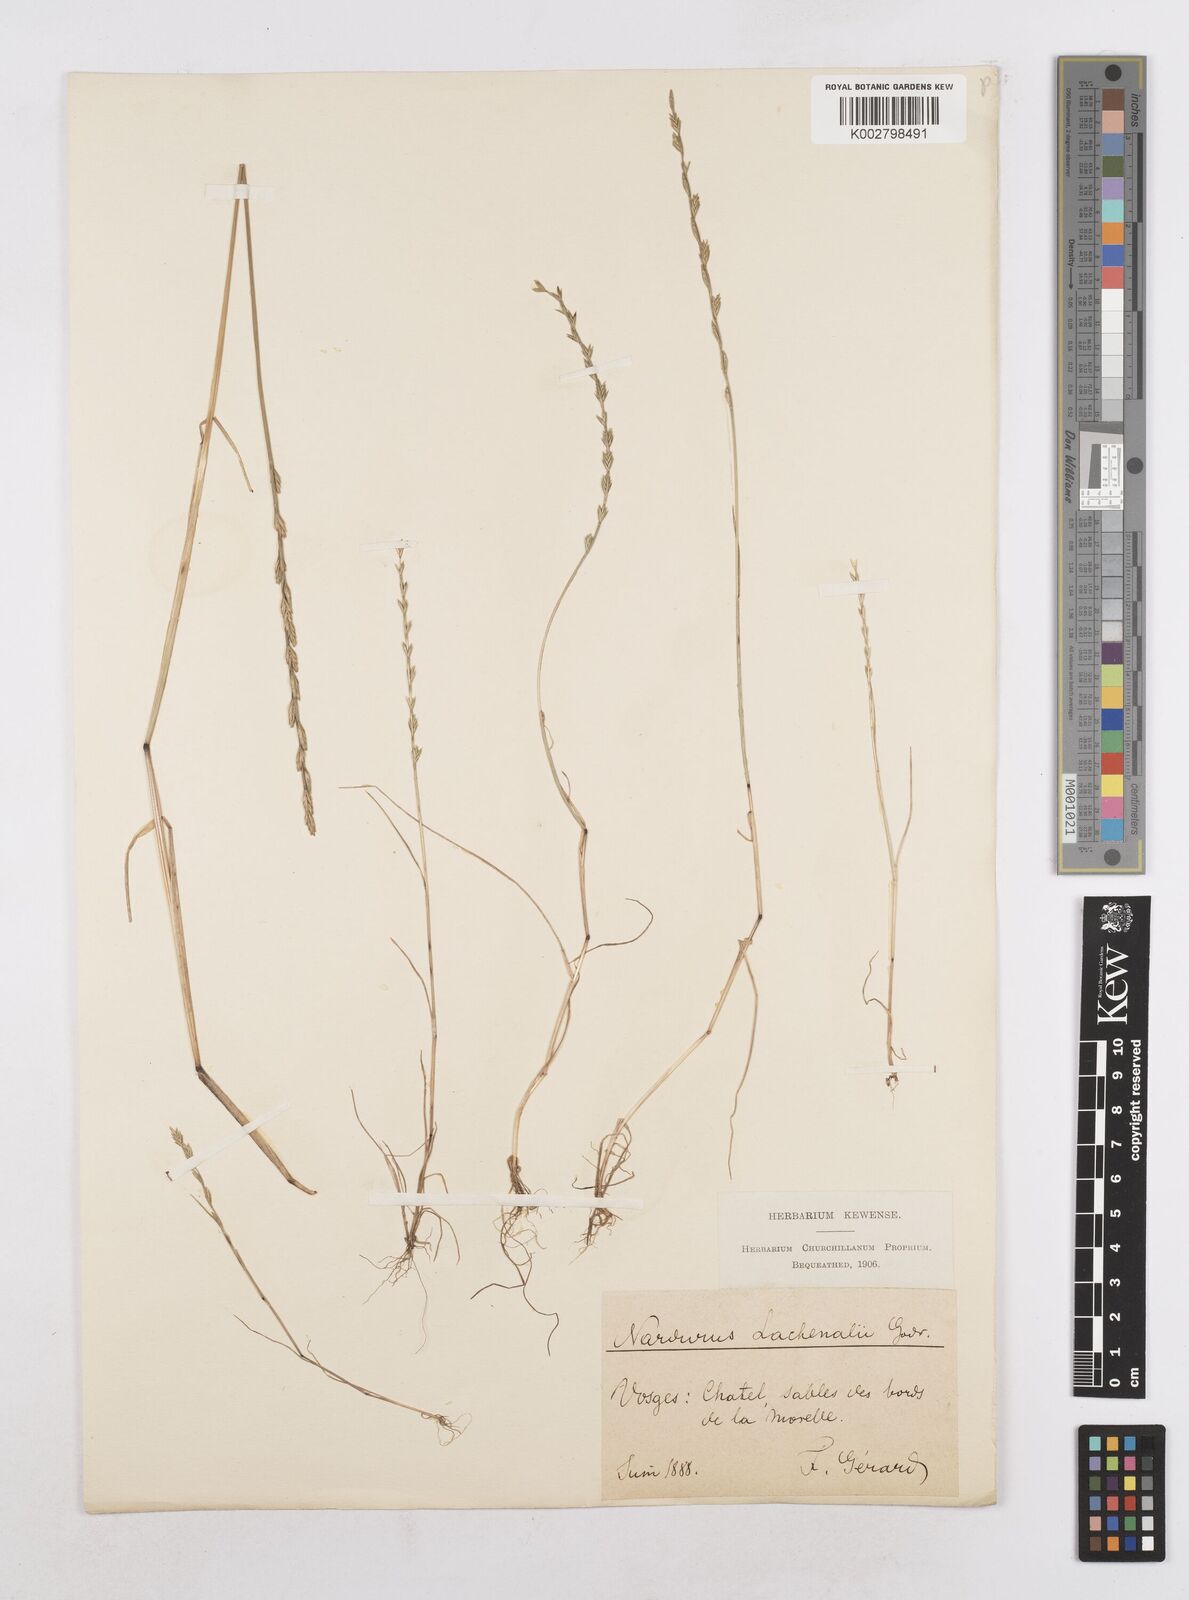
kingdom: Plantae
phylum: Tracheophyta
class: Liliopsida
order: Poales
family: Poaceae
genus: Festuca
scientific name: Festuca lachenalii
